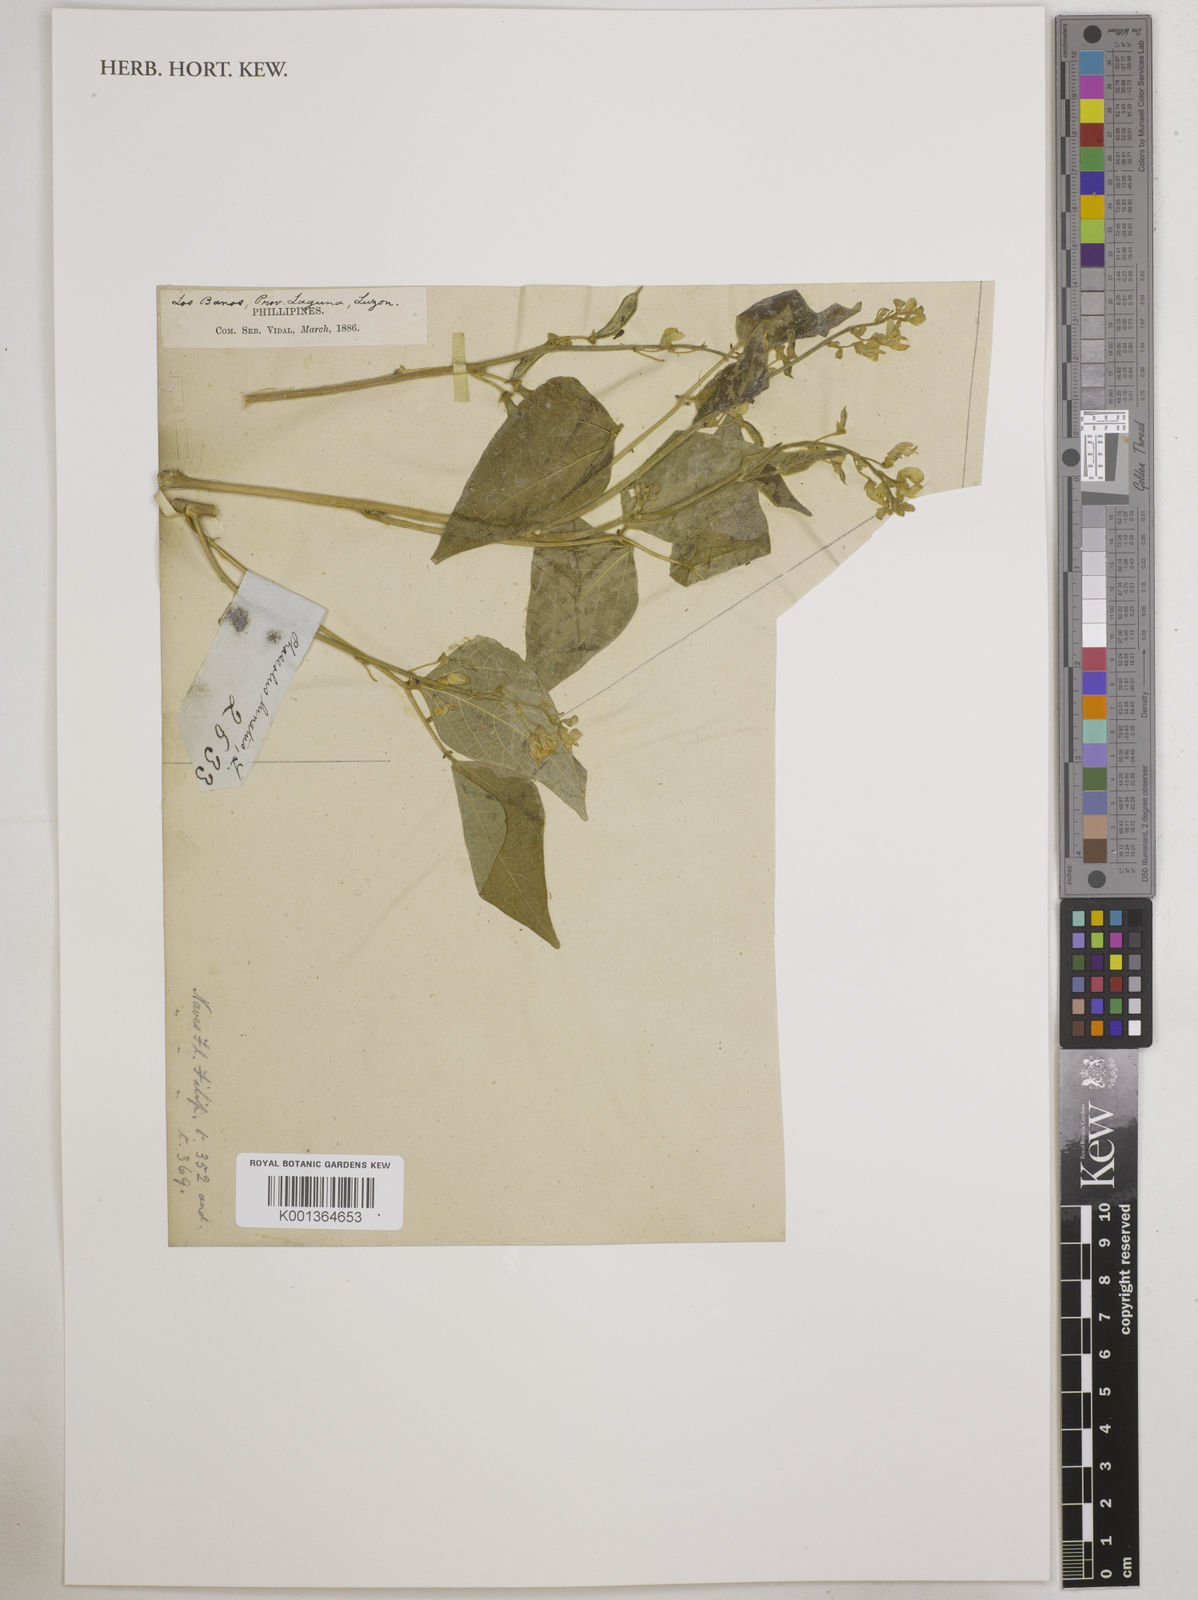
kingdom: Plantae
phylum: Tracheophyta
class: Magnoliopsida
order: Fabales
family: Fabaceae
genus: Phaseolus
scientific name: Phaseolus lunatus
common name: Sieva bean
